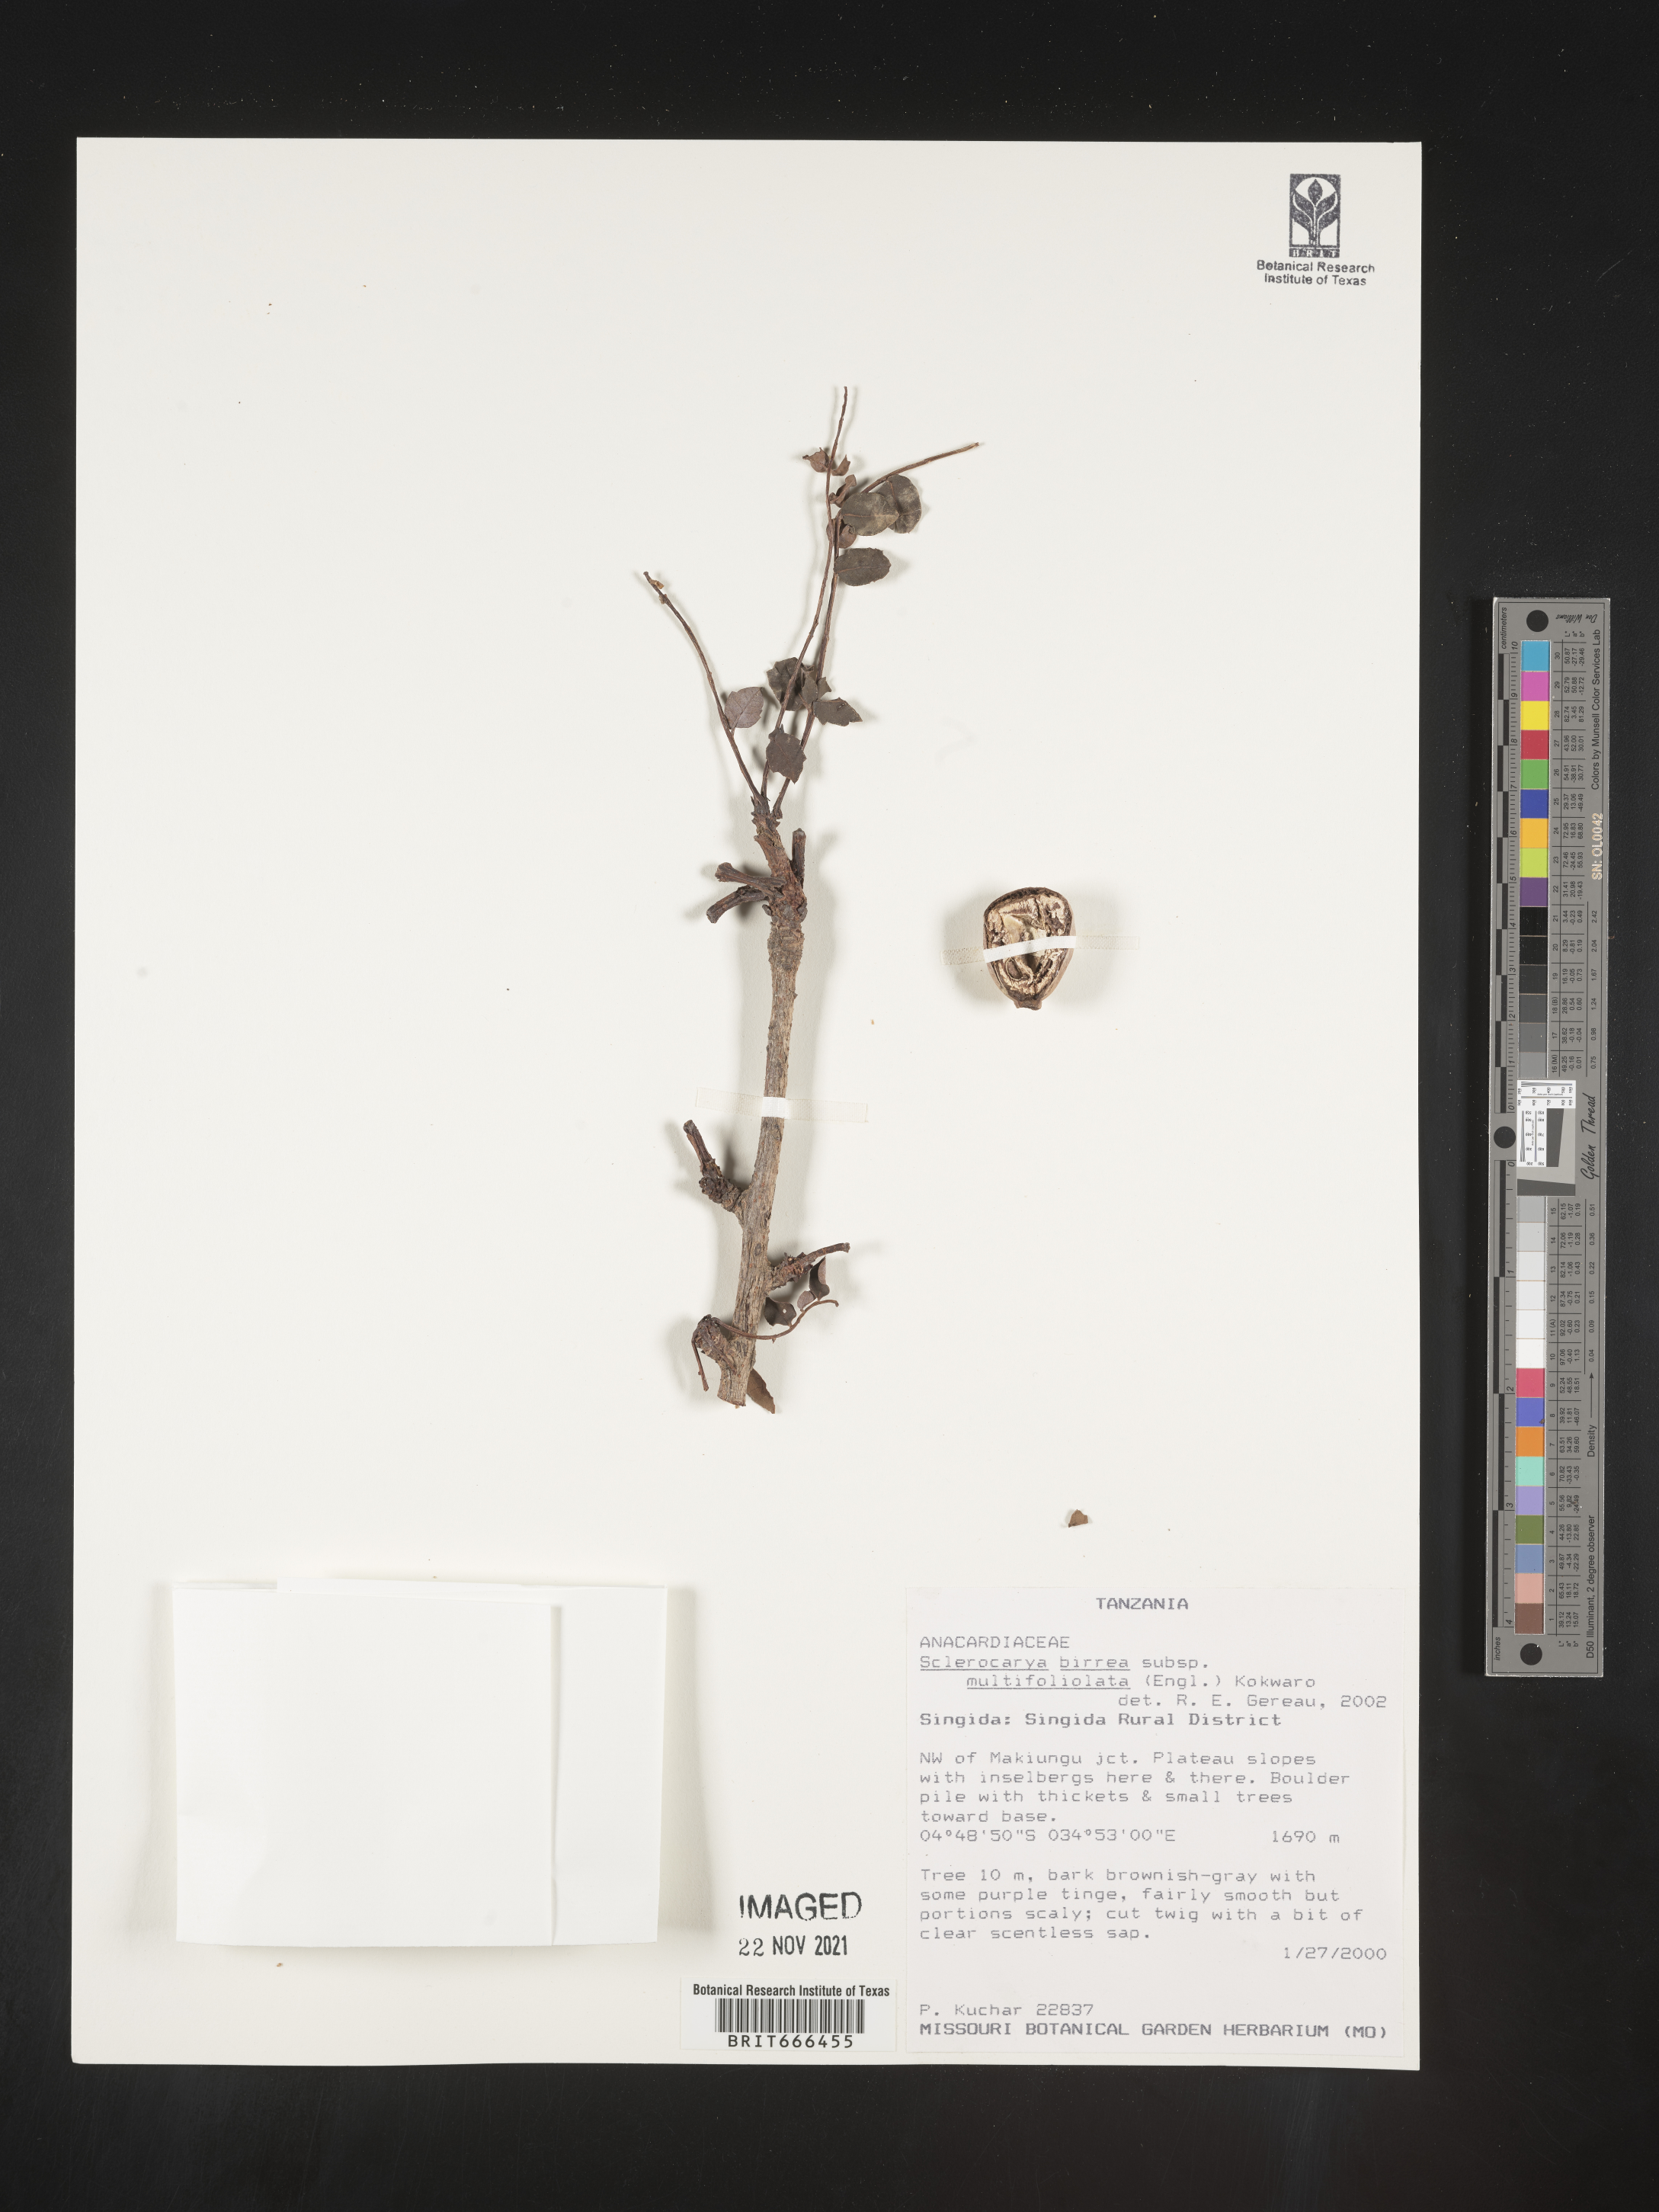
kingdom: Plantae
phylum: Tracheophyta
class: Magnoliopsida
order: Sapindales
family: Anacardiaceae
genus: Sclerocarya
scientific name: Sclerocarya birrea
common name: Marula
